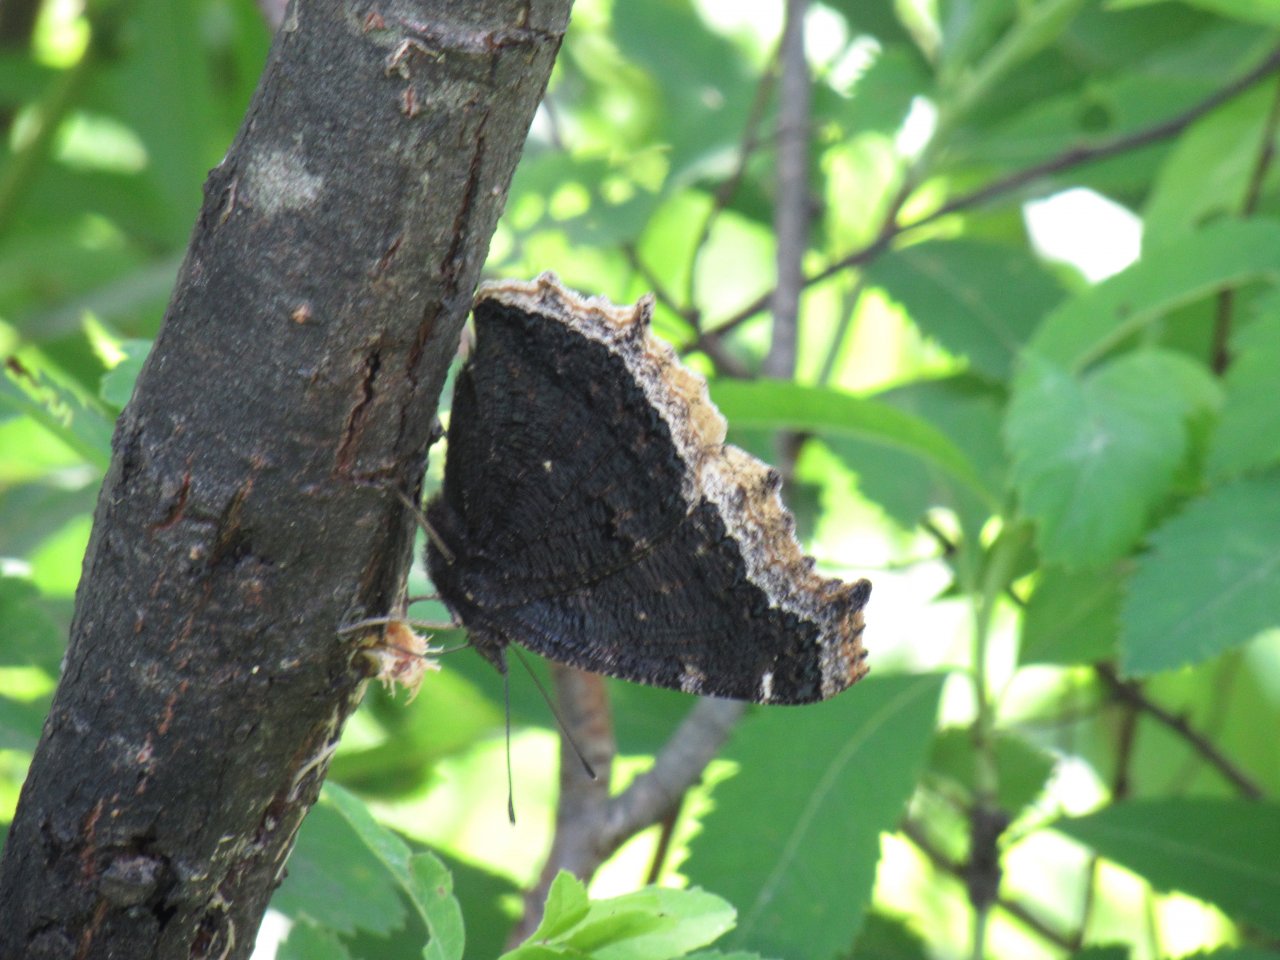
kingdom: Animalia
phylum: Arthropoda
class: Insecta
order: Lepidoptera
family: Nymphalidae
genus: Nymphalis
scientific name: Nymphalis antiopa
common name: Mourning Cloak
